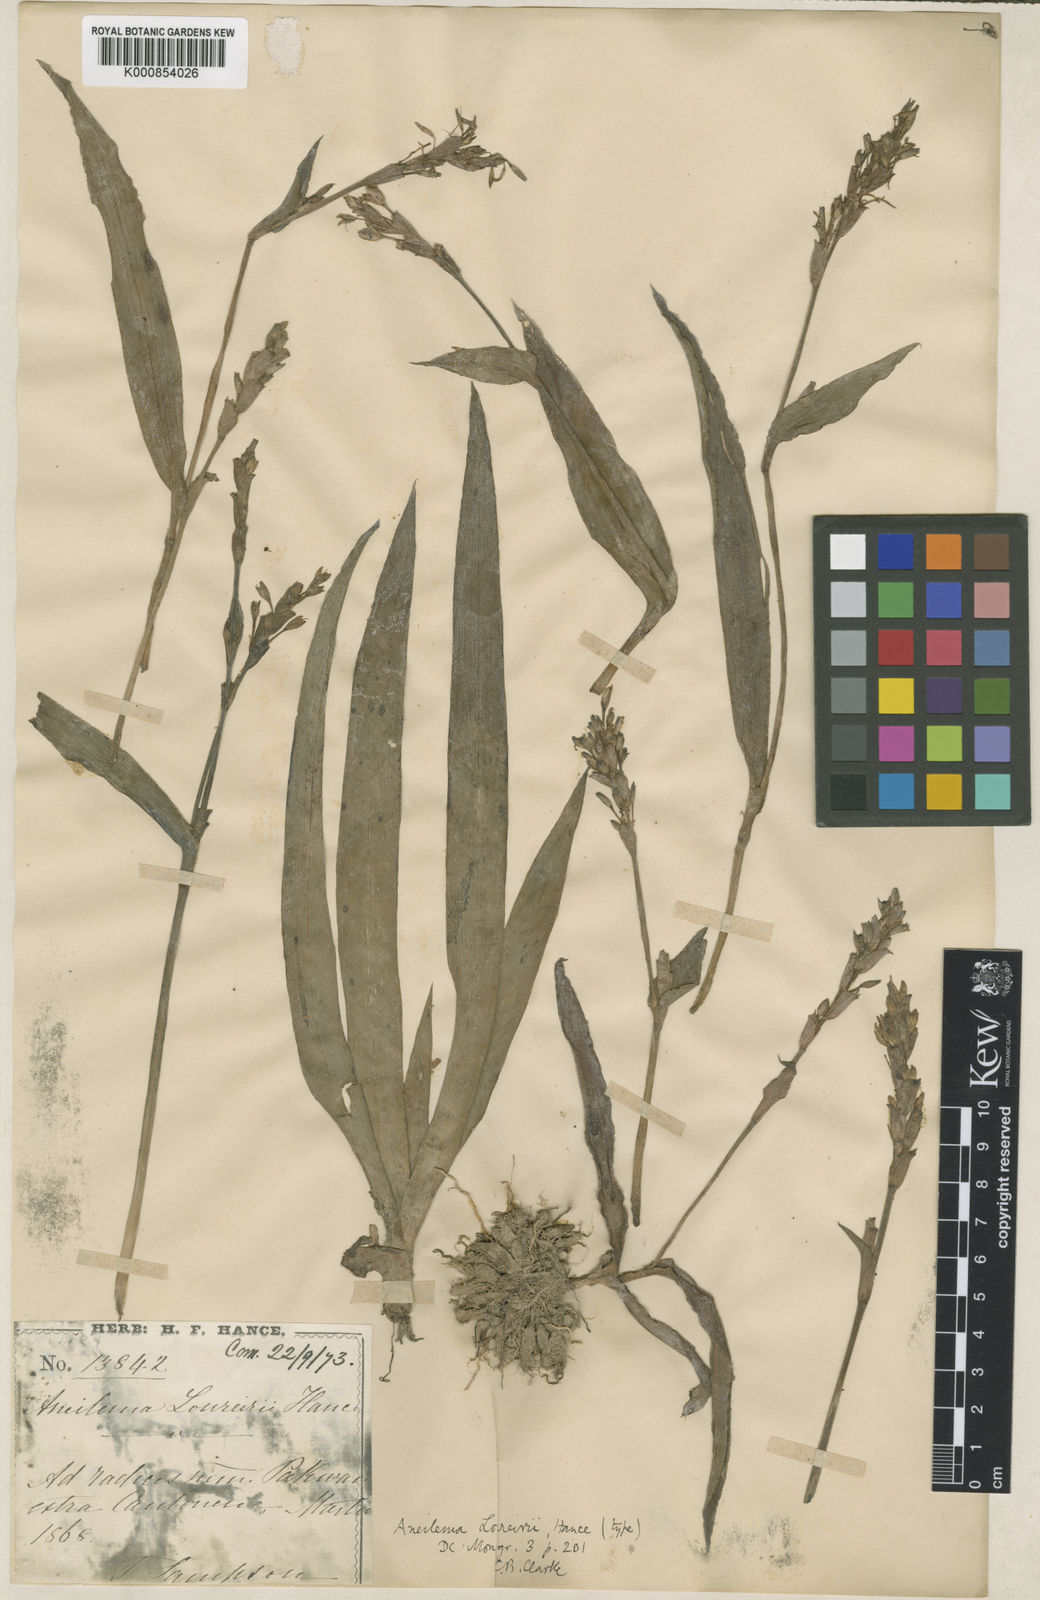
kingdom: Plantae
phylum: Tracheophyta
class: Liliopsida
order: Commelinales
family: Commelinaceae
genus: Murdannia
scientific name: Murdannia
